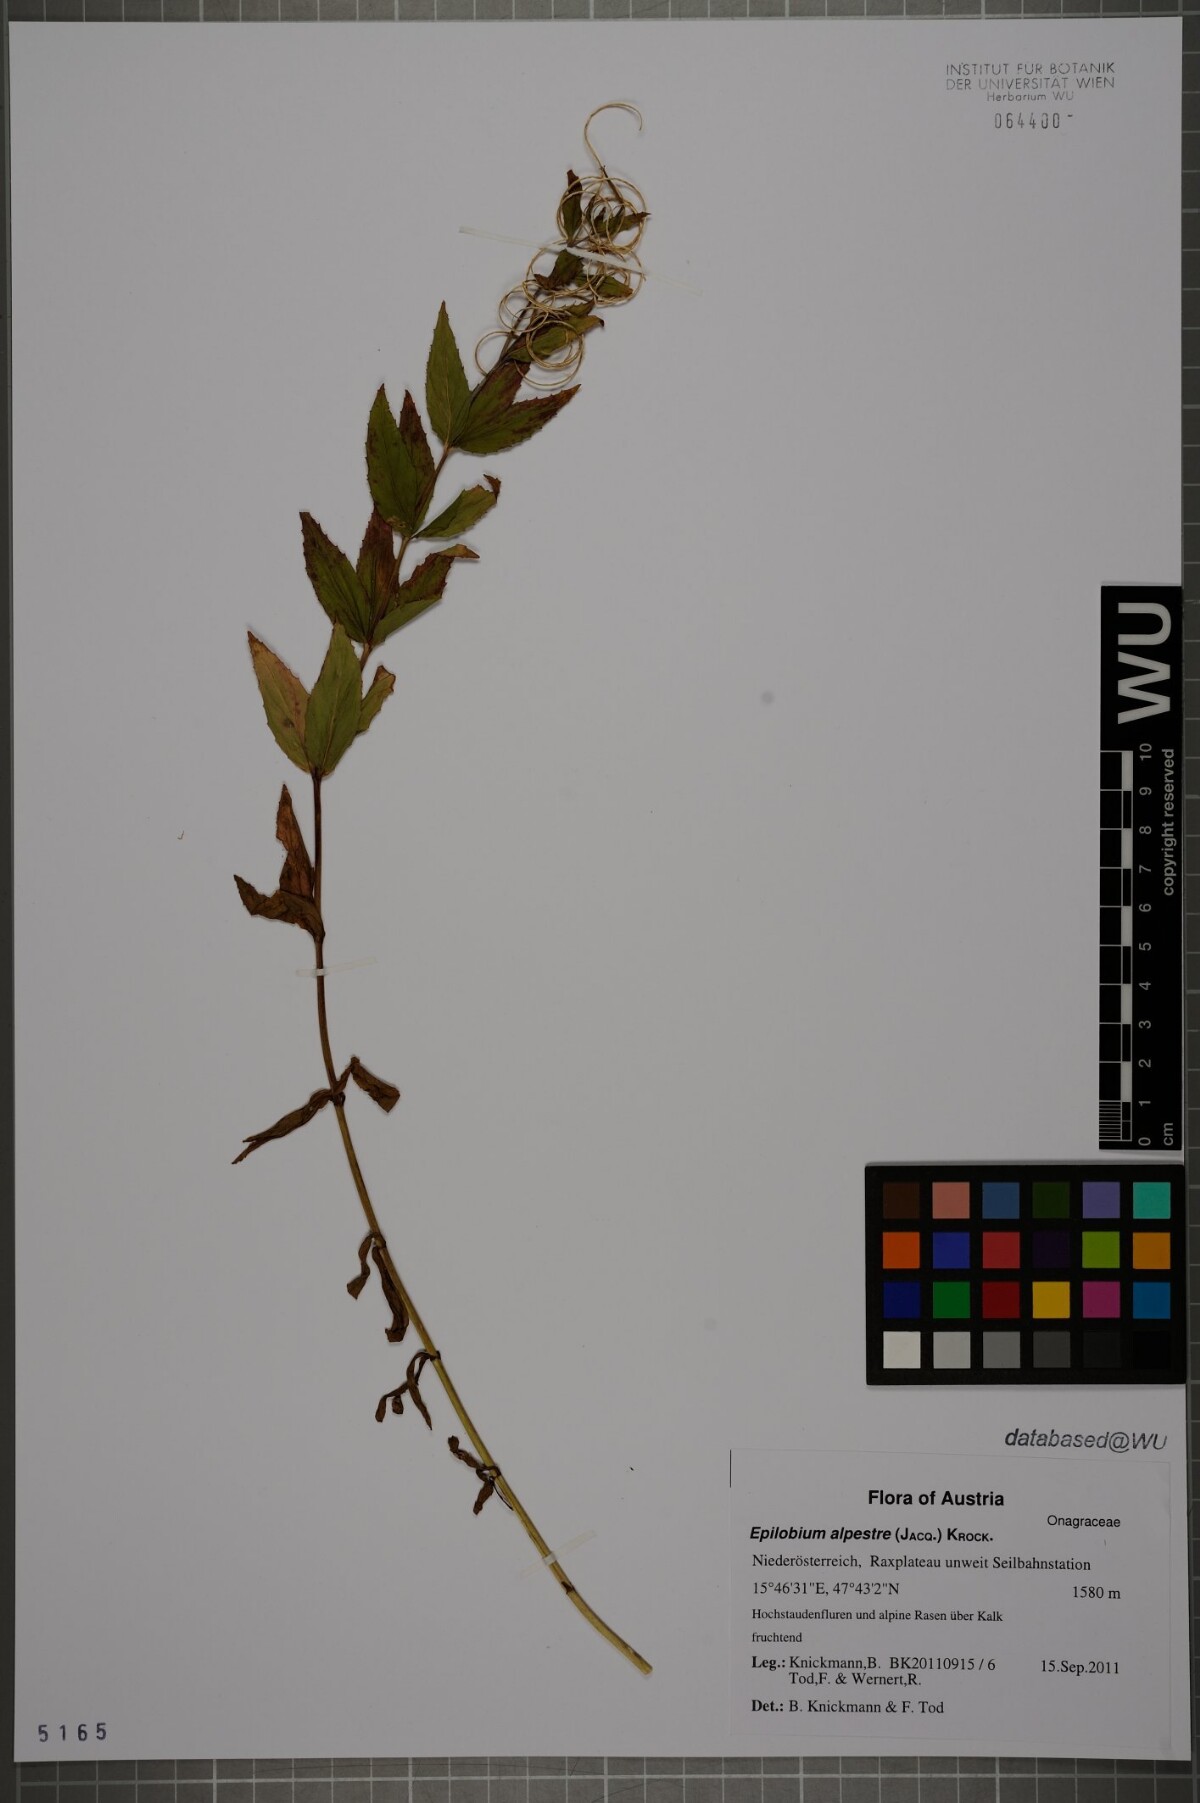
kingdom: Plantae
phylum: Tracheophyta
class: Magnoliopsida
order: Myrtales
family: Onagraceae
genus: Epilobium
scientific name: Epilobium alpestre
